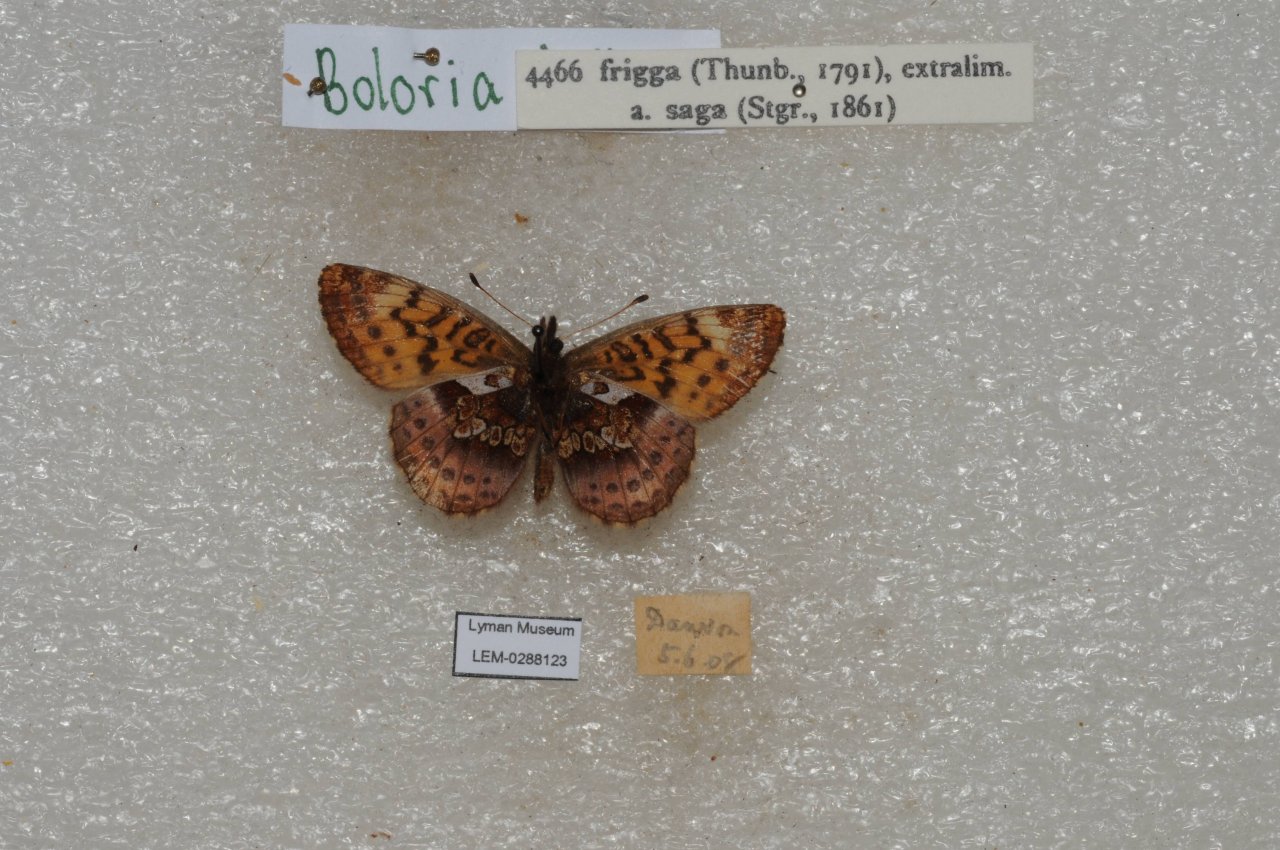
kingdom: Animalia
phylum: Arthropoda
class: Insecta
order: Lepidoptera
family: Nymphalidae
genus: Boloria
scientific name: Boloria frigga
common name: Frigga Fritillary
